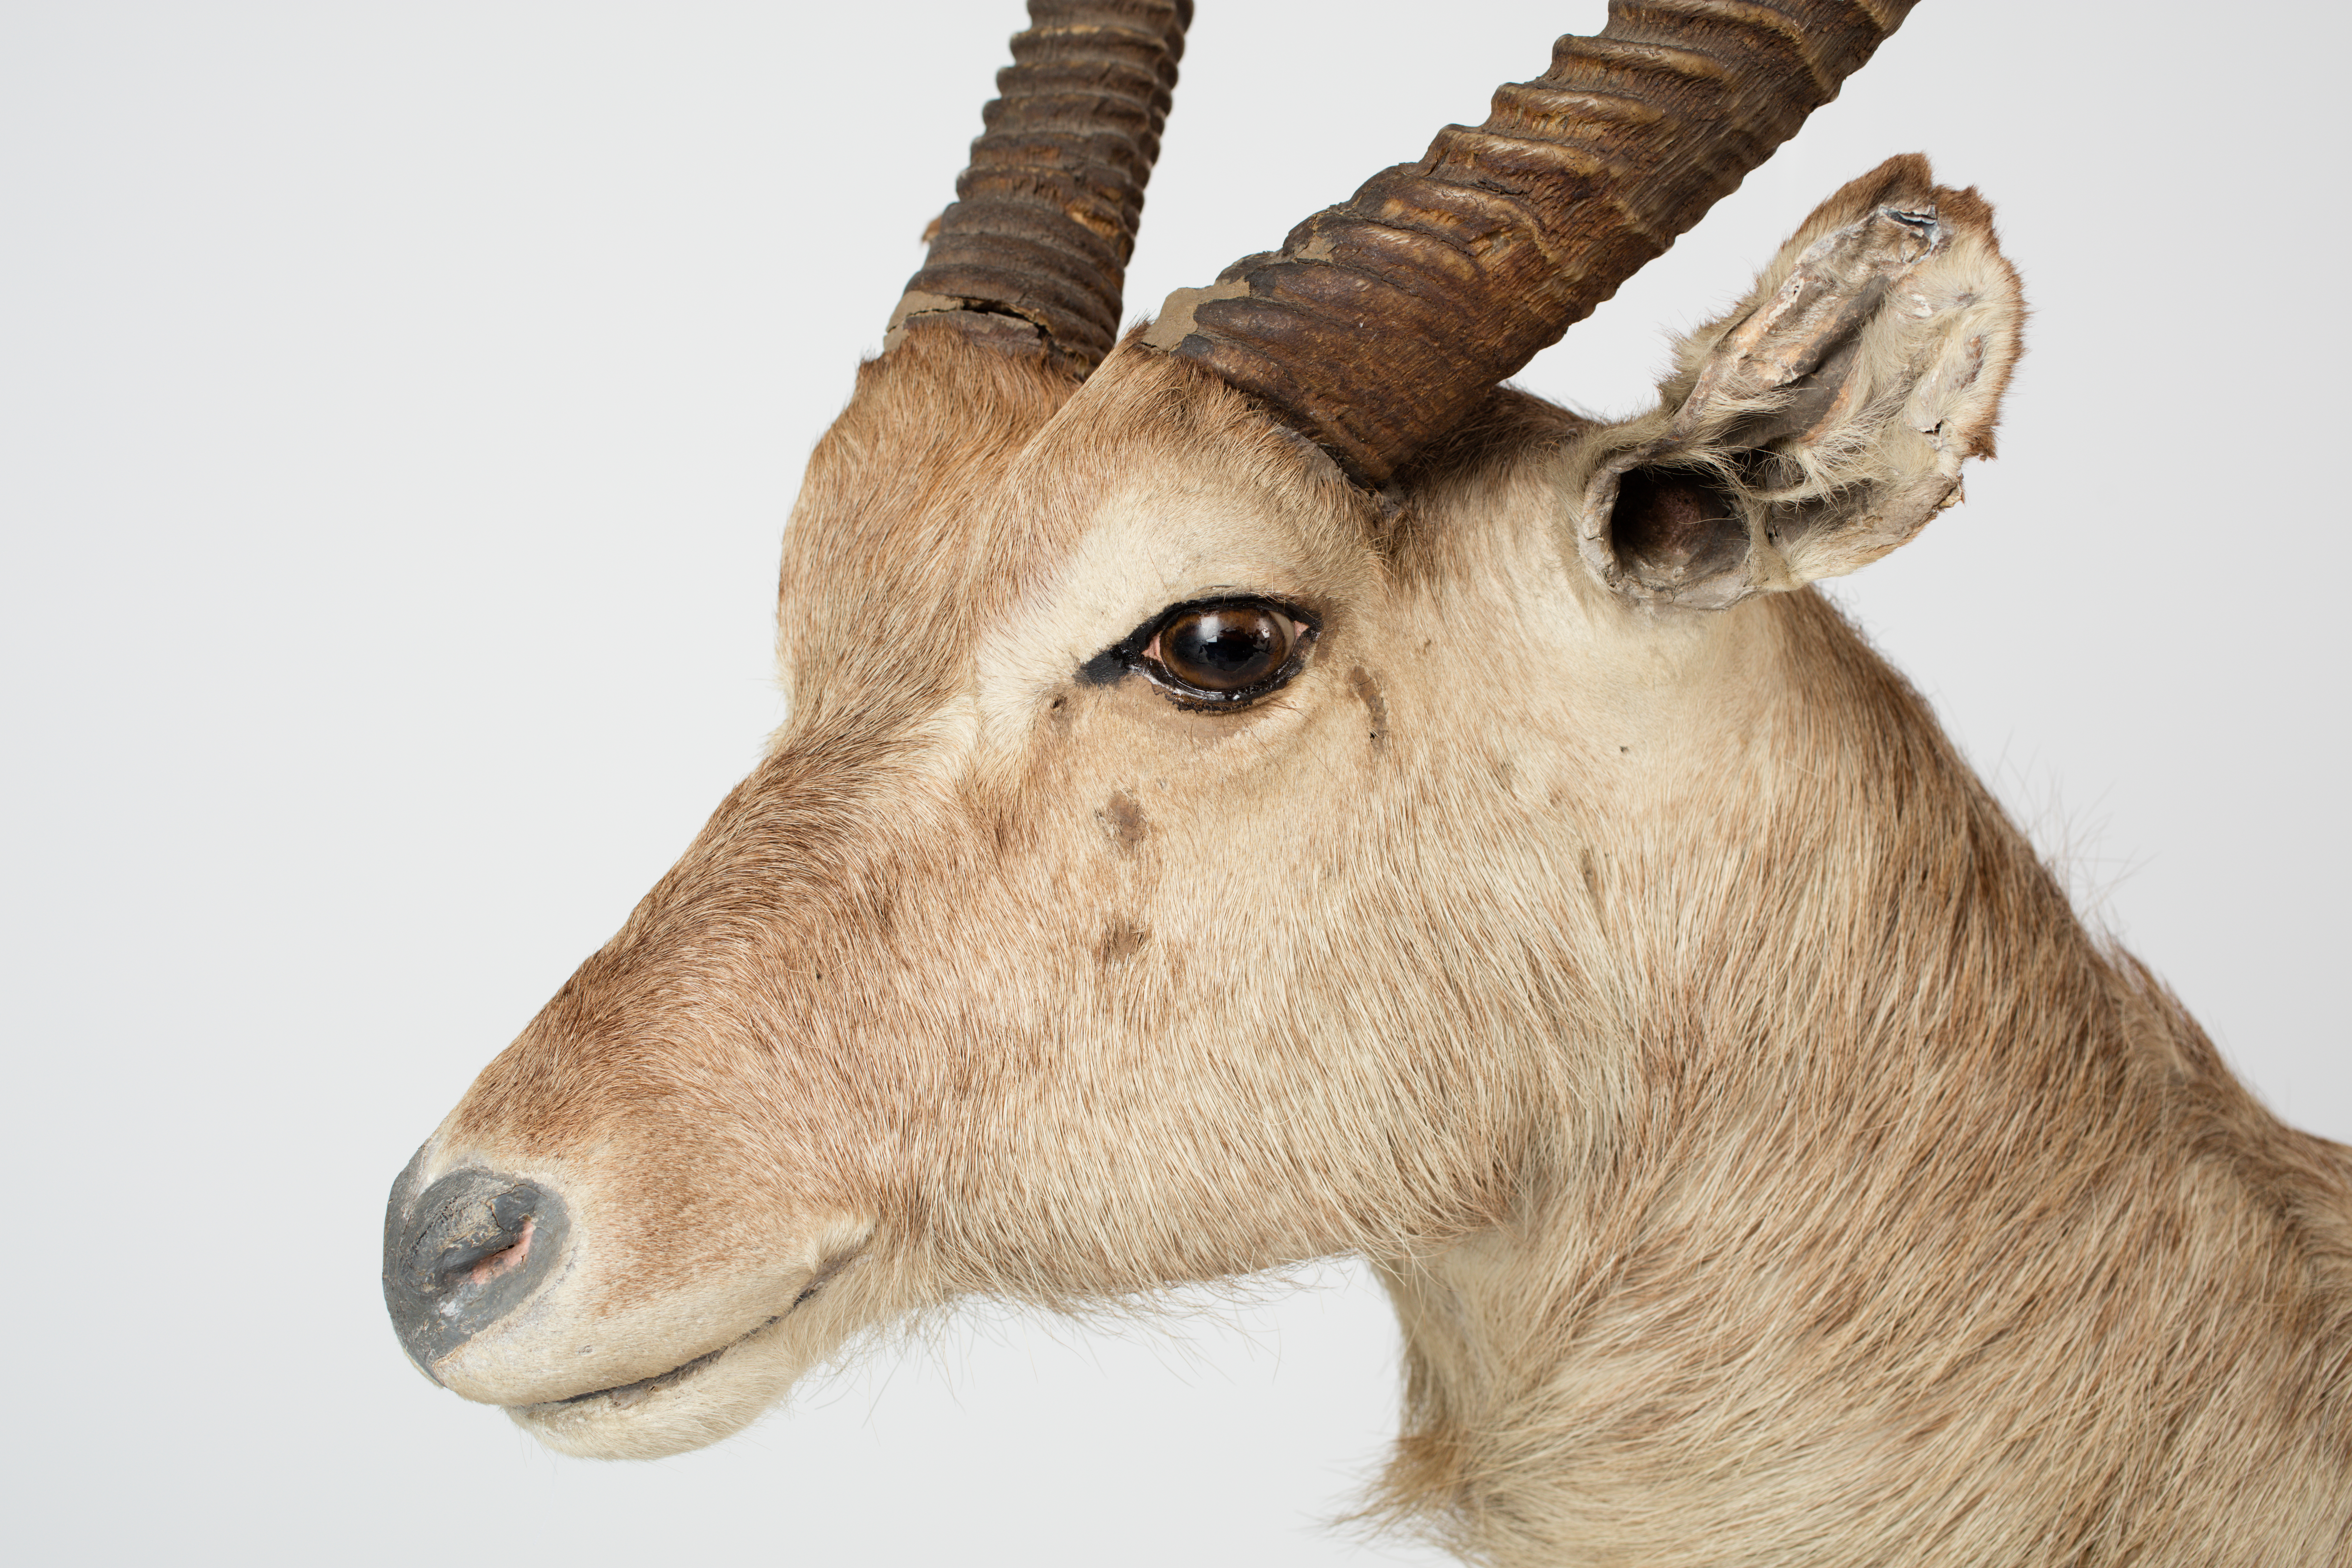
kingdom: Animalia
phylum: Chordata
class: Mammalia
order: Artiodactyla
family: Bovidae
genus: Kobus
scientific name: Kobus ellipsiprymnus
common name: Waterbuck
